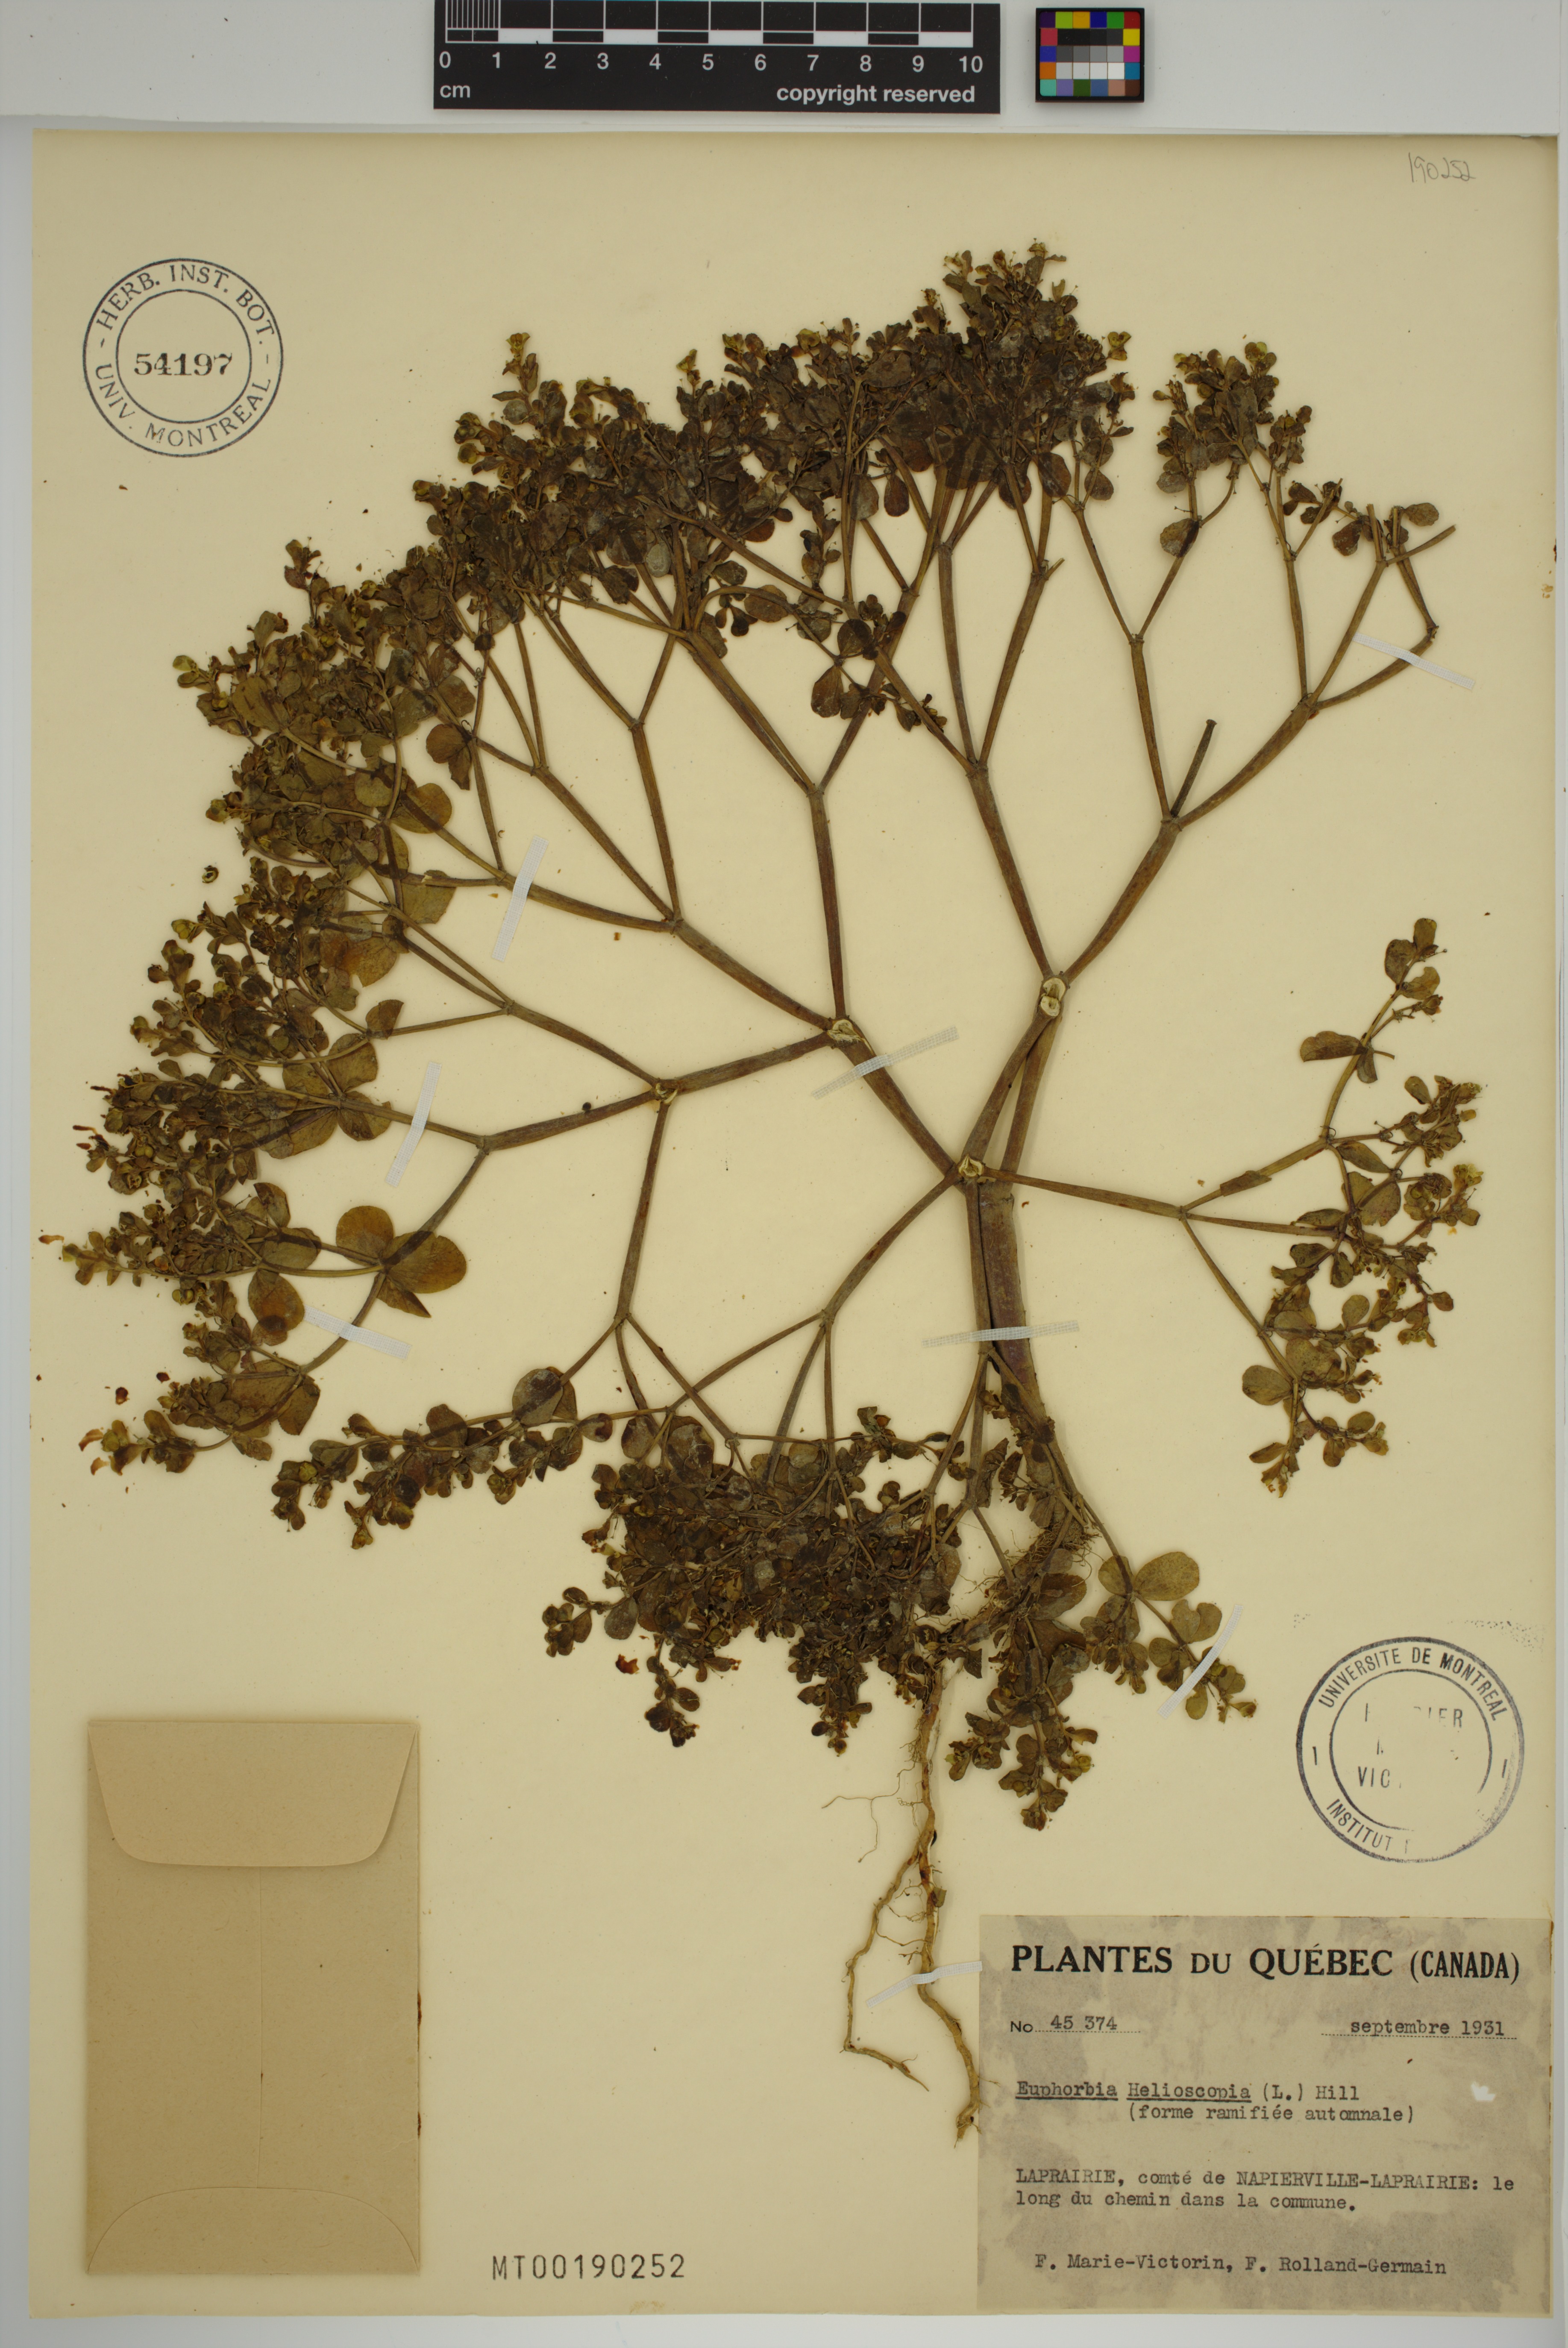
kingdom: Plantae
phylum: Tracheophyta
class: Magnoliopsida
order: Malpighiales
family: Euphorbiaceae
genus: Euphorbia
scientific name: Euphorbia helioscopia
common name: Sun spurge
